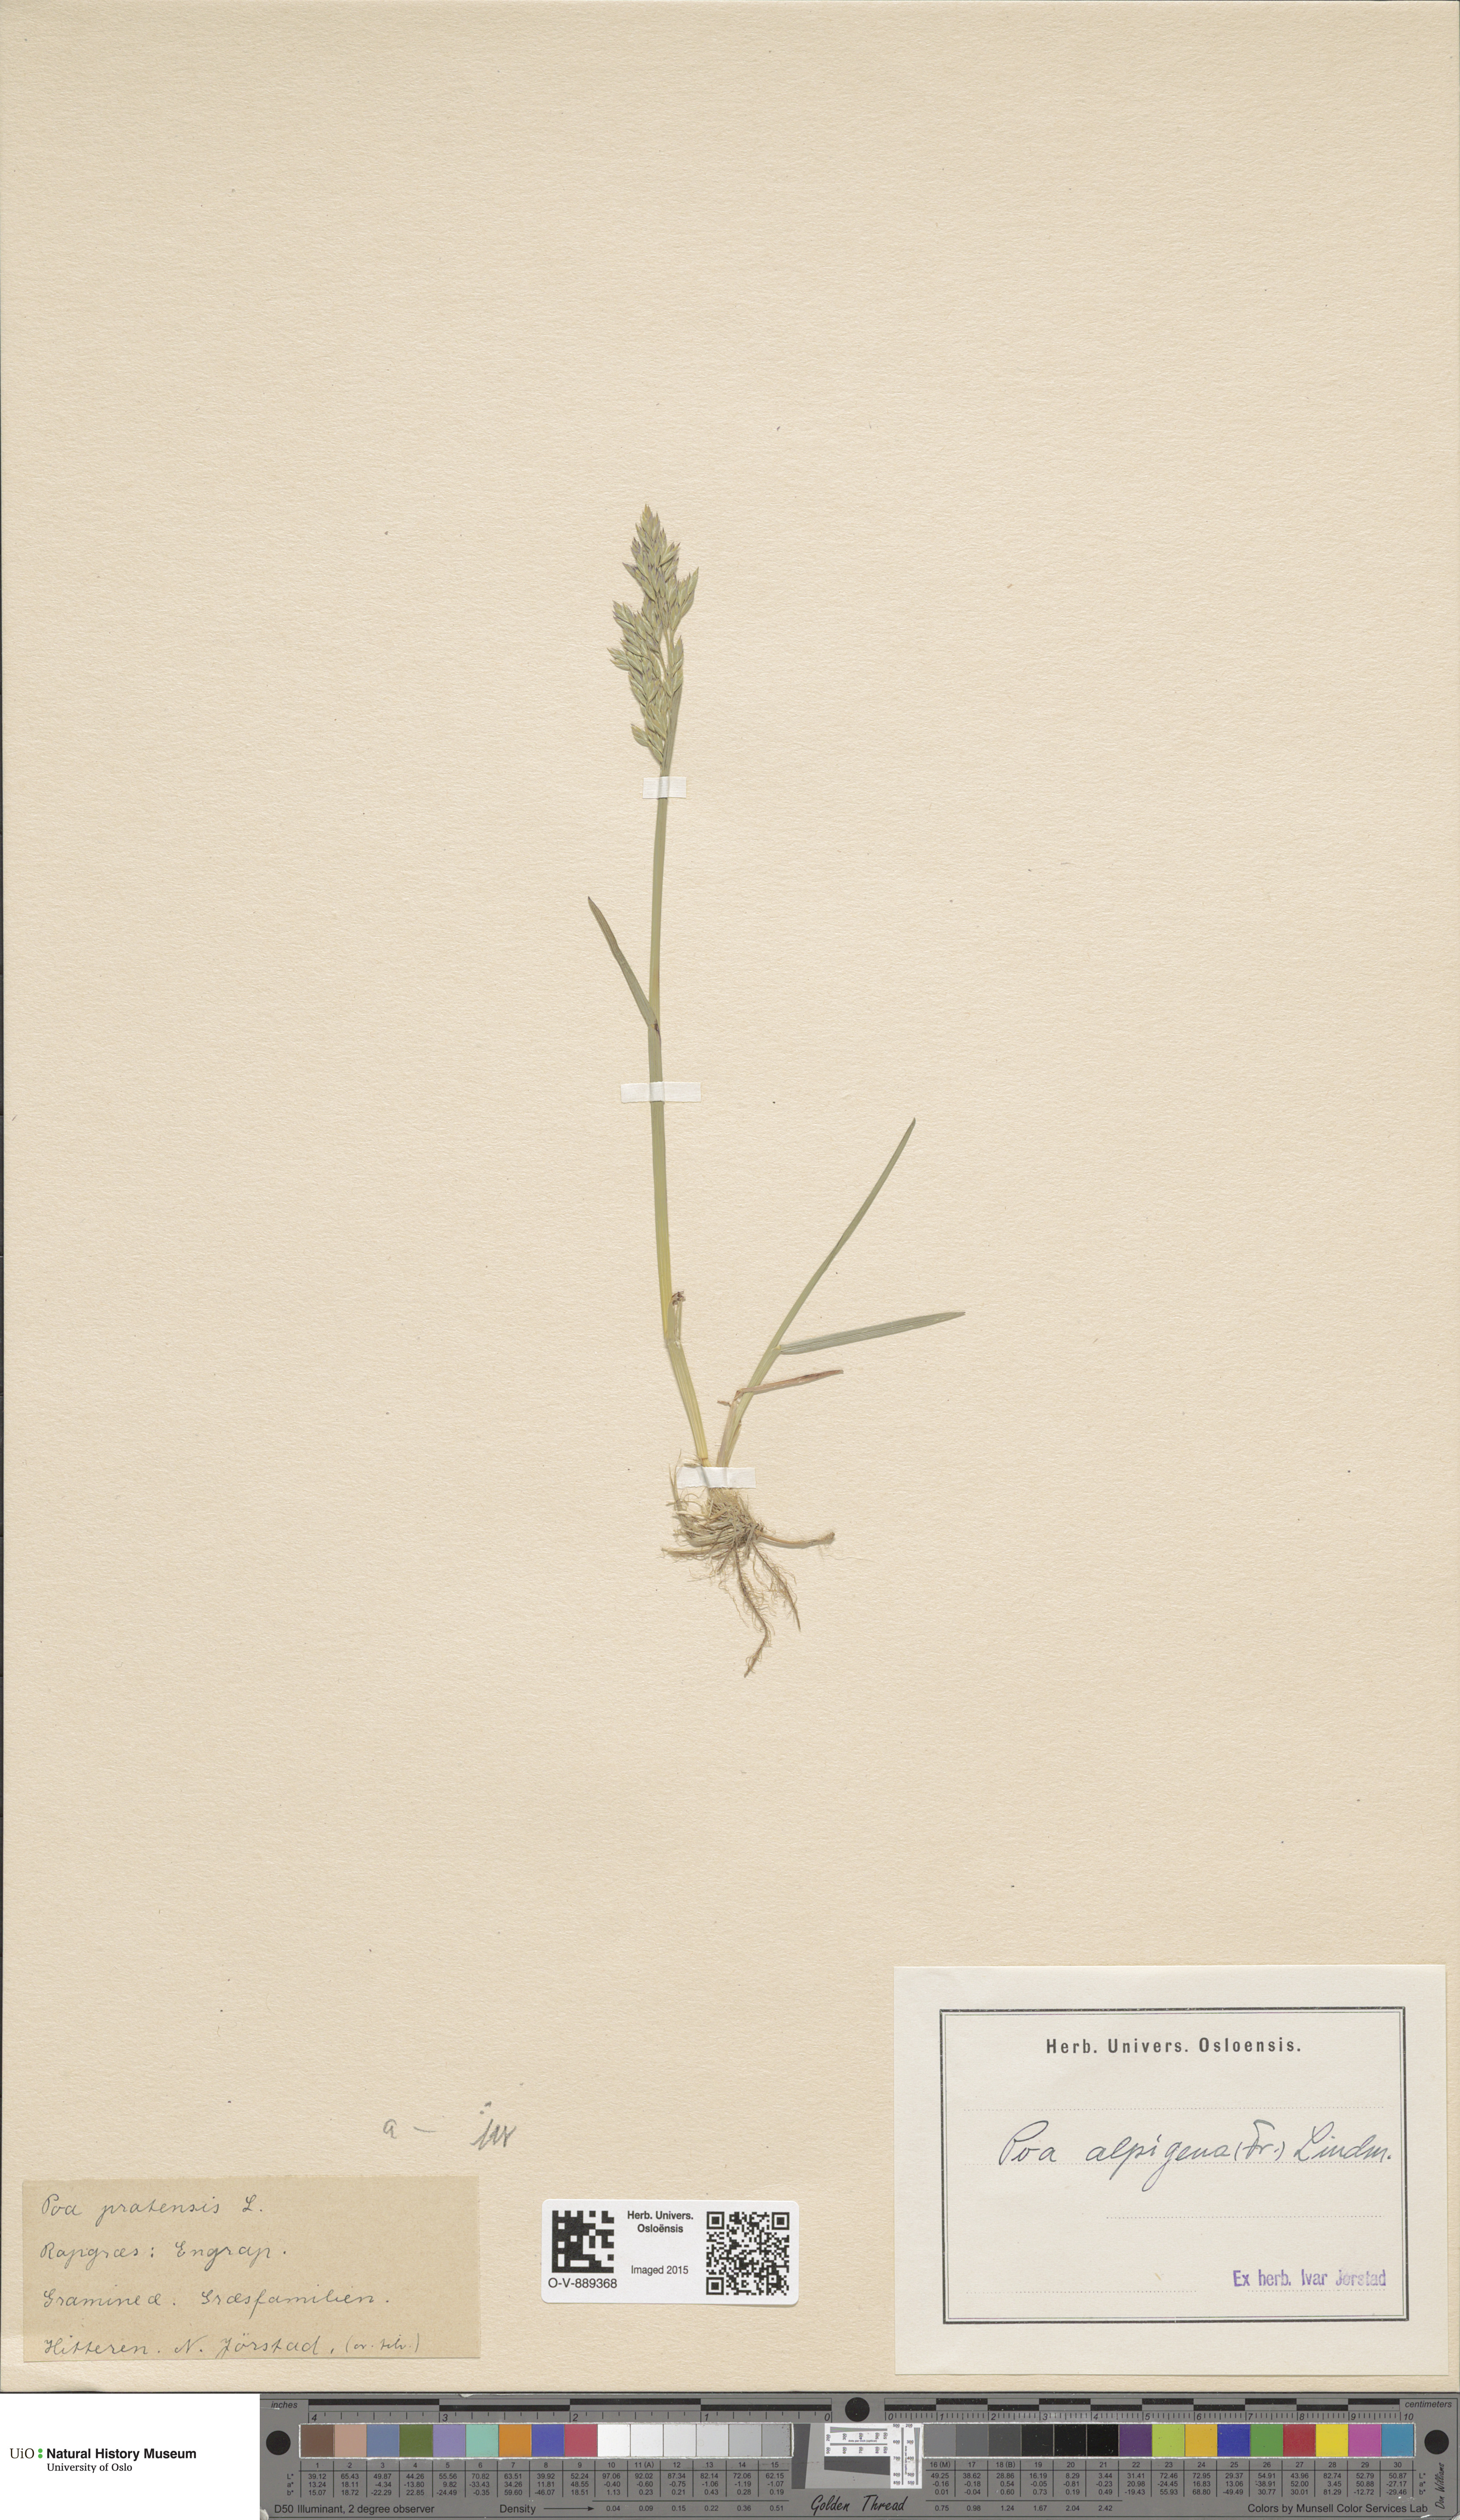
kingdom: Plantae
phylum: Tracheophyta
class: Liliopsida
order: Poales
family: Poaceae
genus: Poa
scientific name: Poa alpigena
